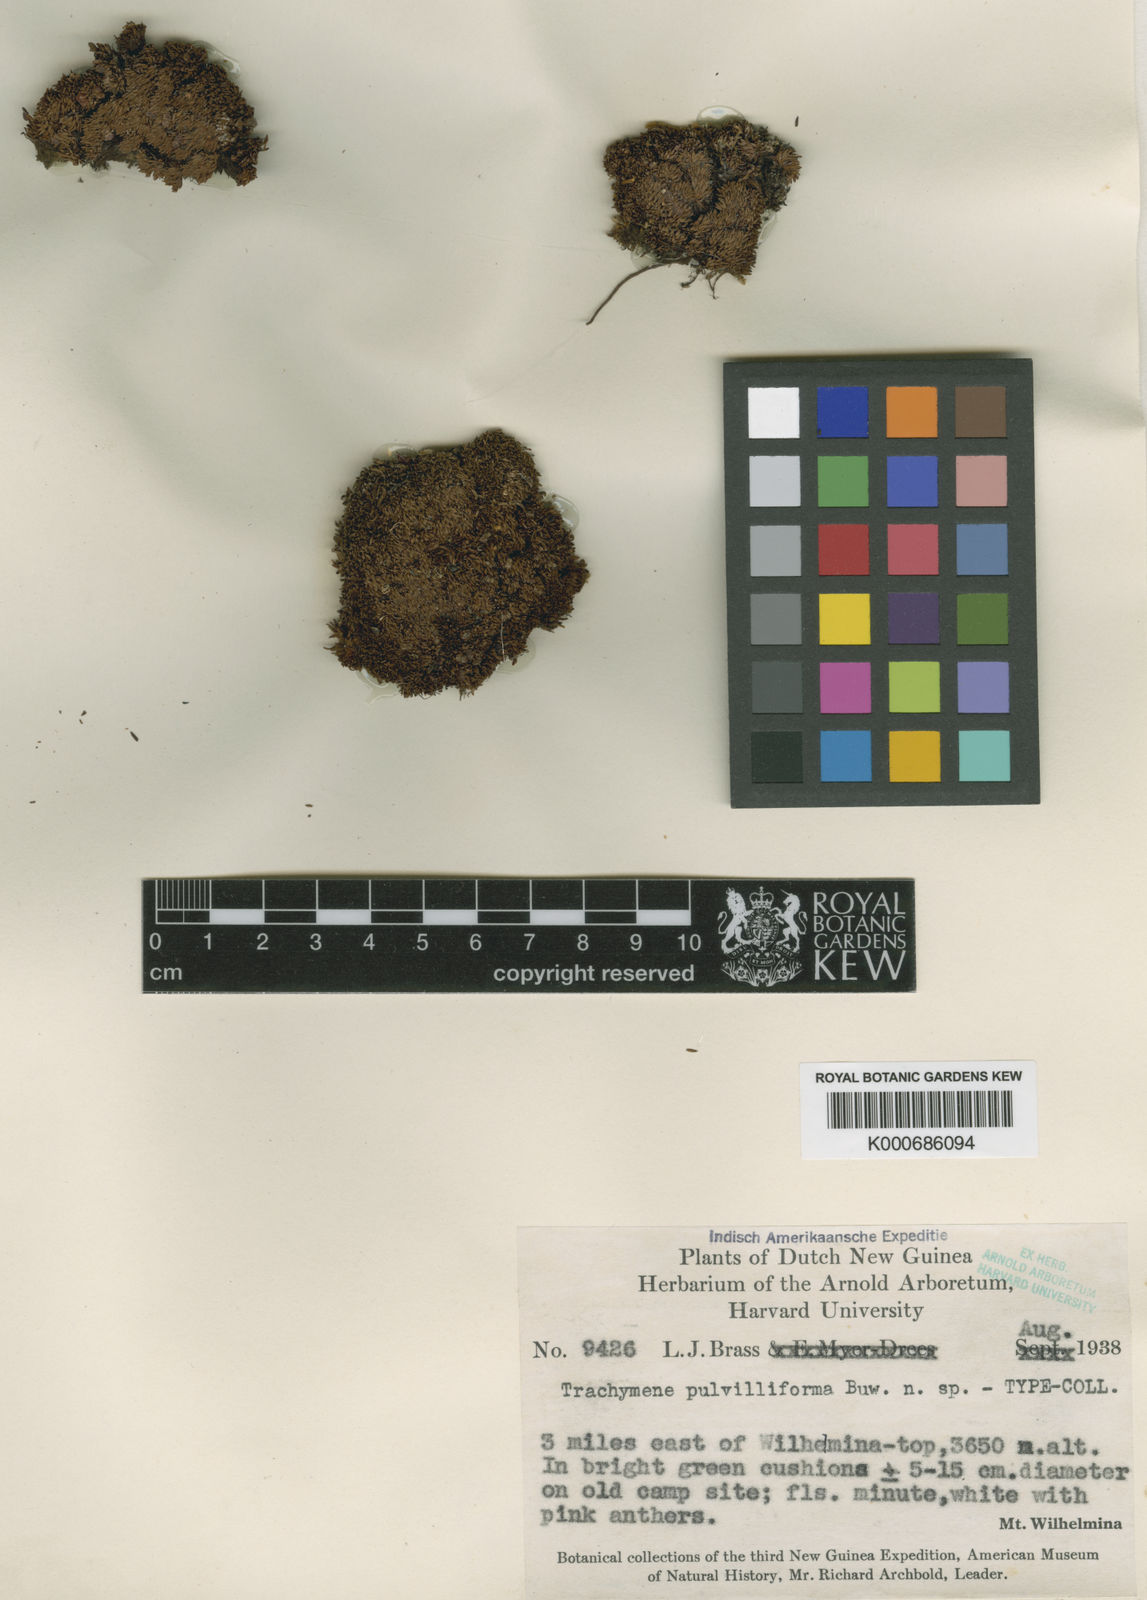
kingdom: Plantae
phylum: Tracheophyta
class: Magnoliopsida
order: Apiales
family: Araliaceae
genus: Trachymene
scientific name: Trachymene pulvilliforma
